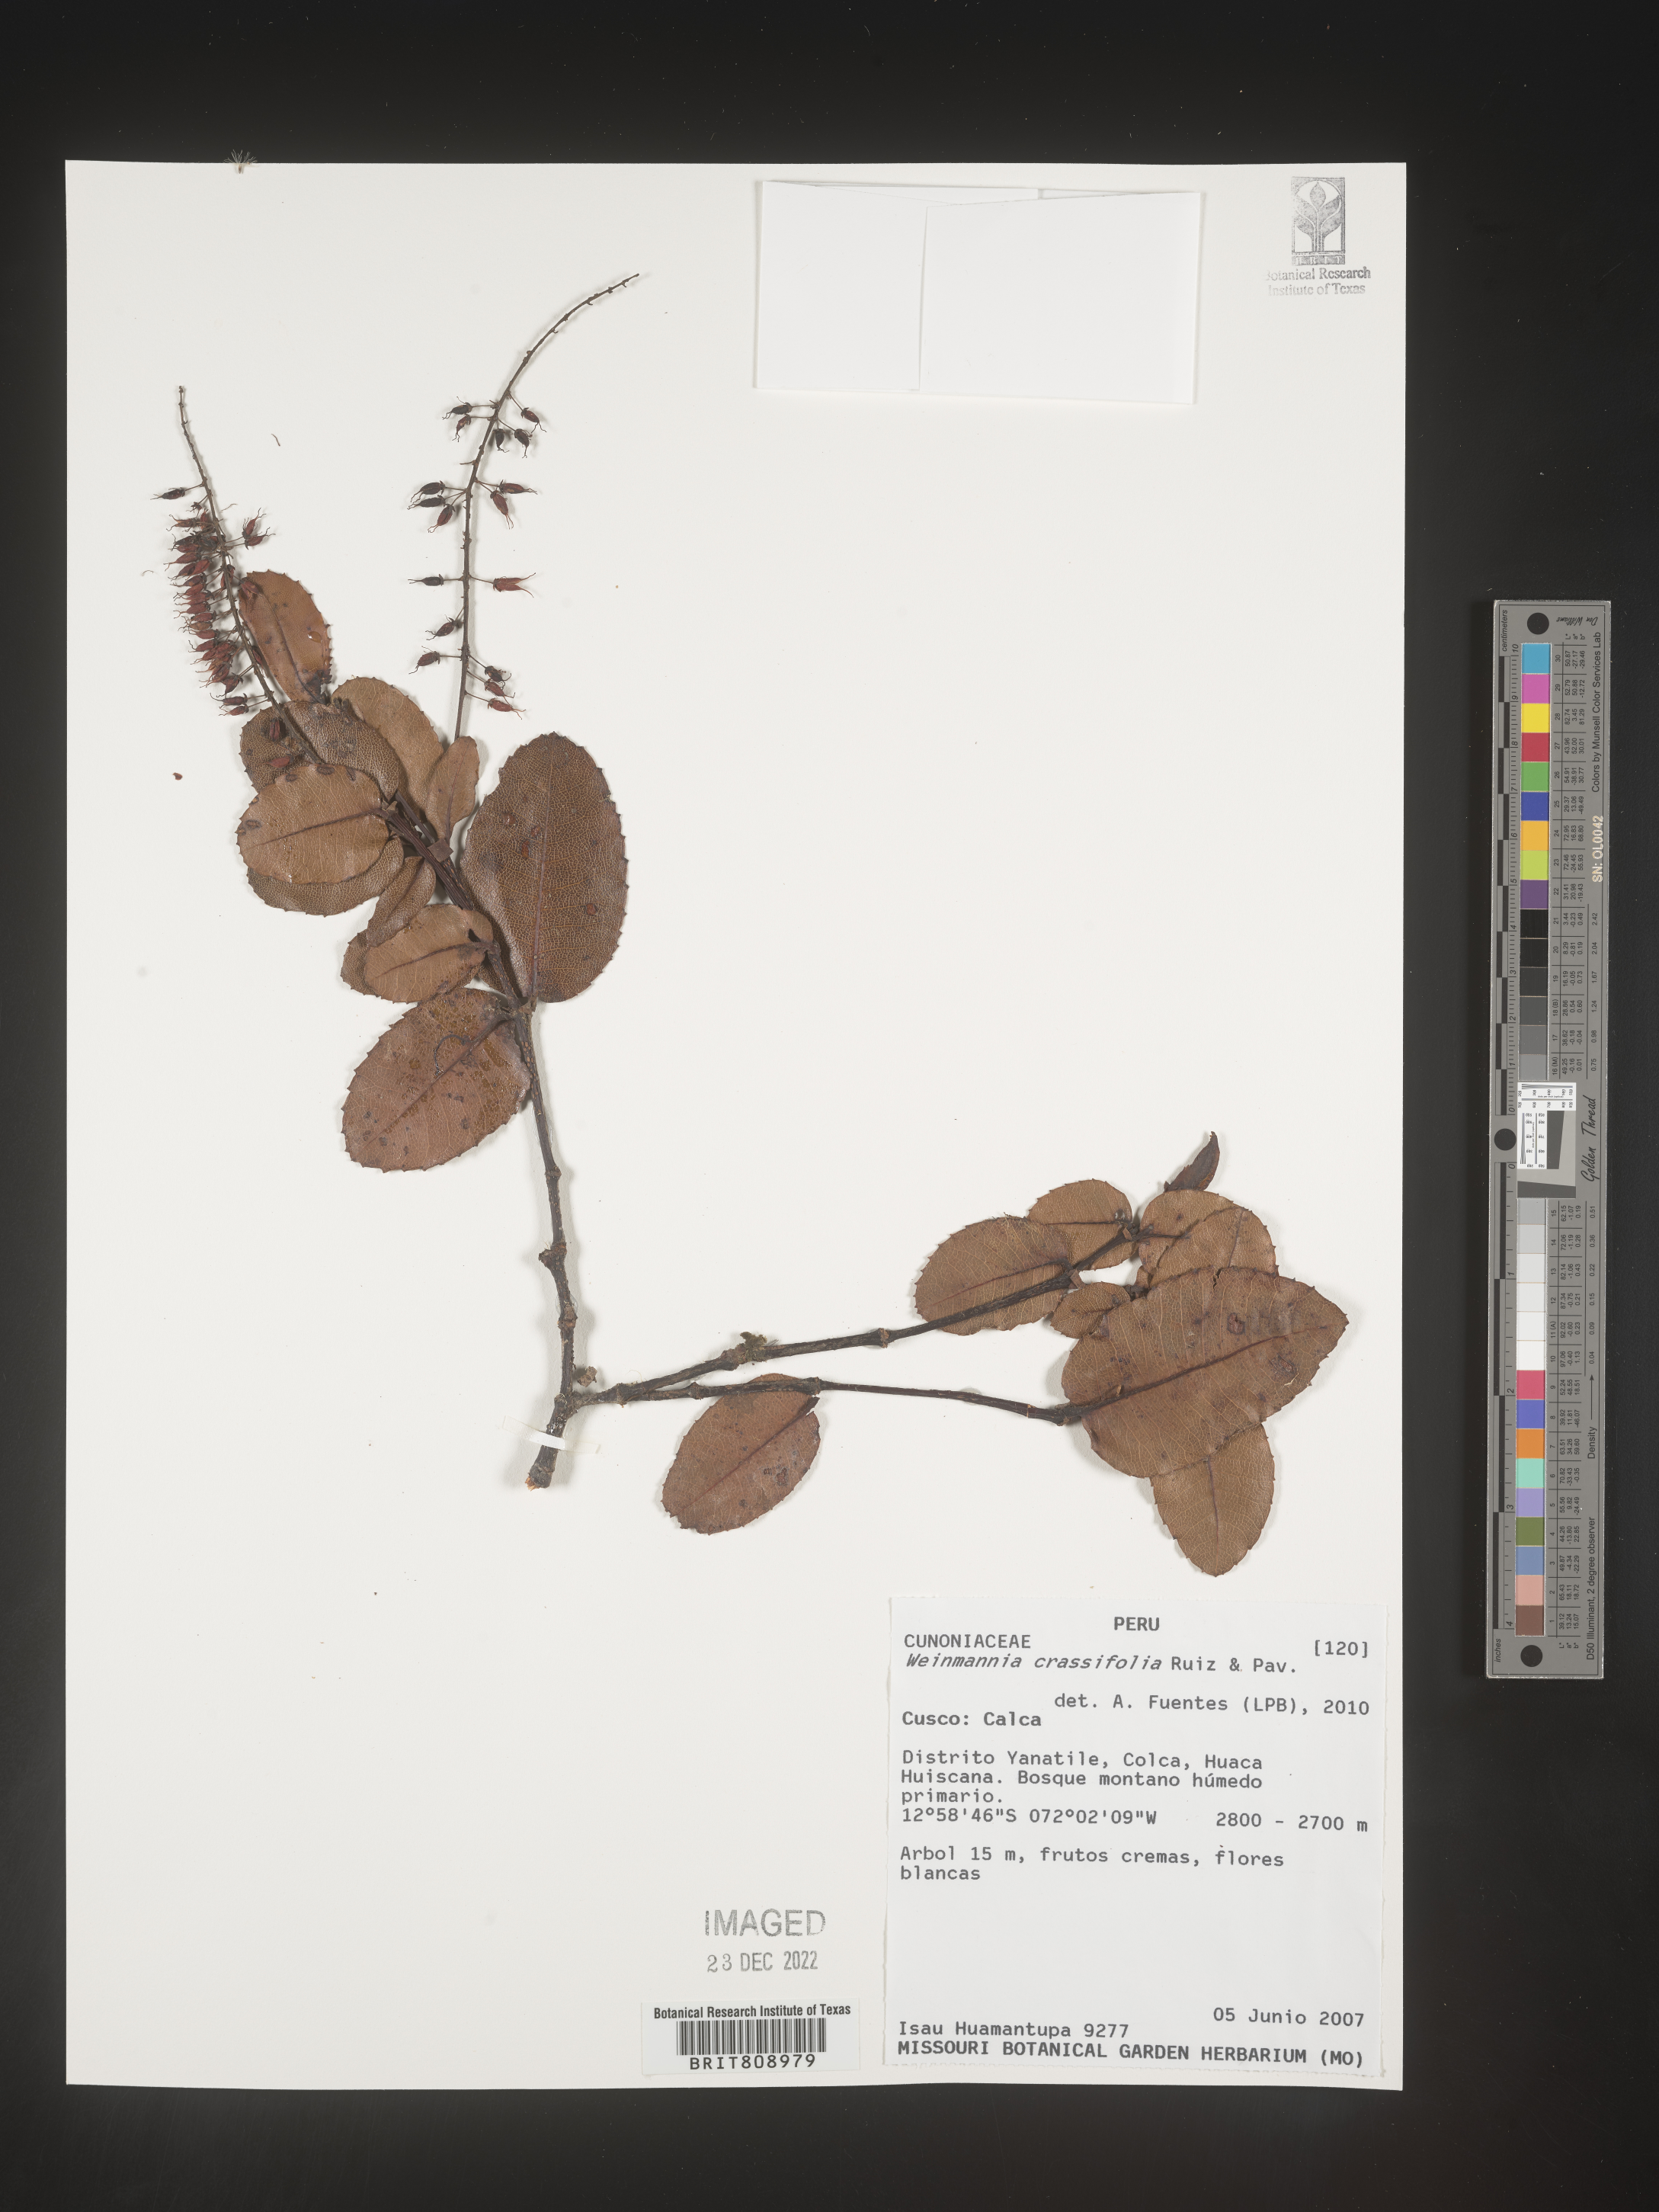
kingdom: Plantae
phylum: Tracheophyta
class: Magnoliopsida
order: Oxalidales
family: Cunoniaceae
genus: Weinmannia
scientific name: Weinmannia
